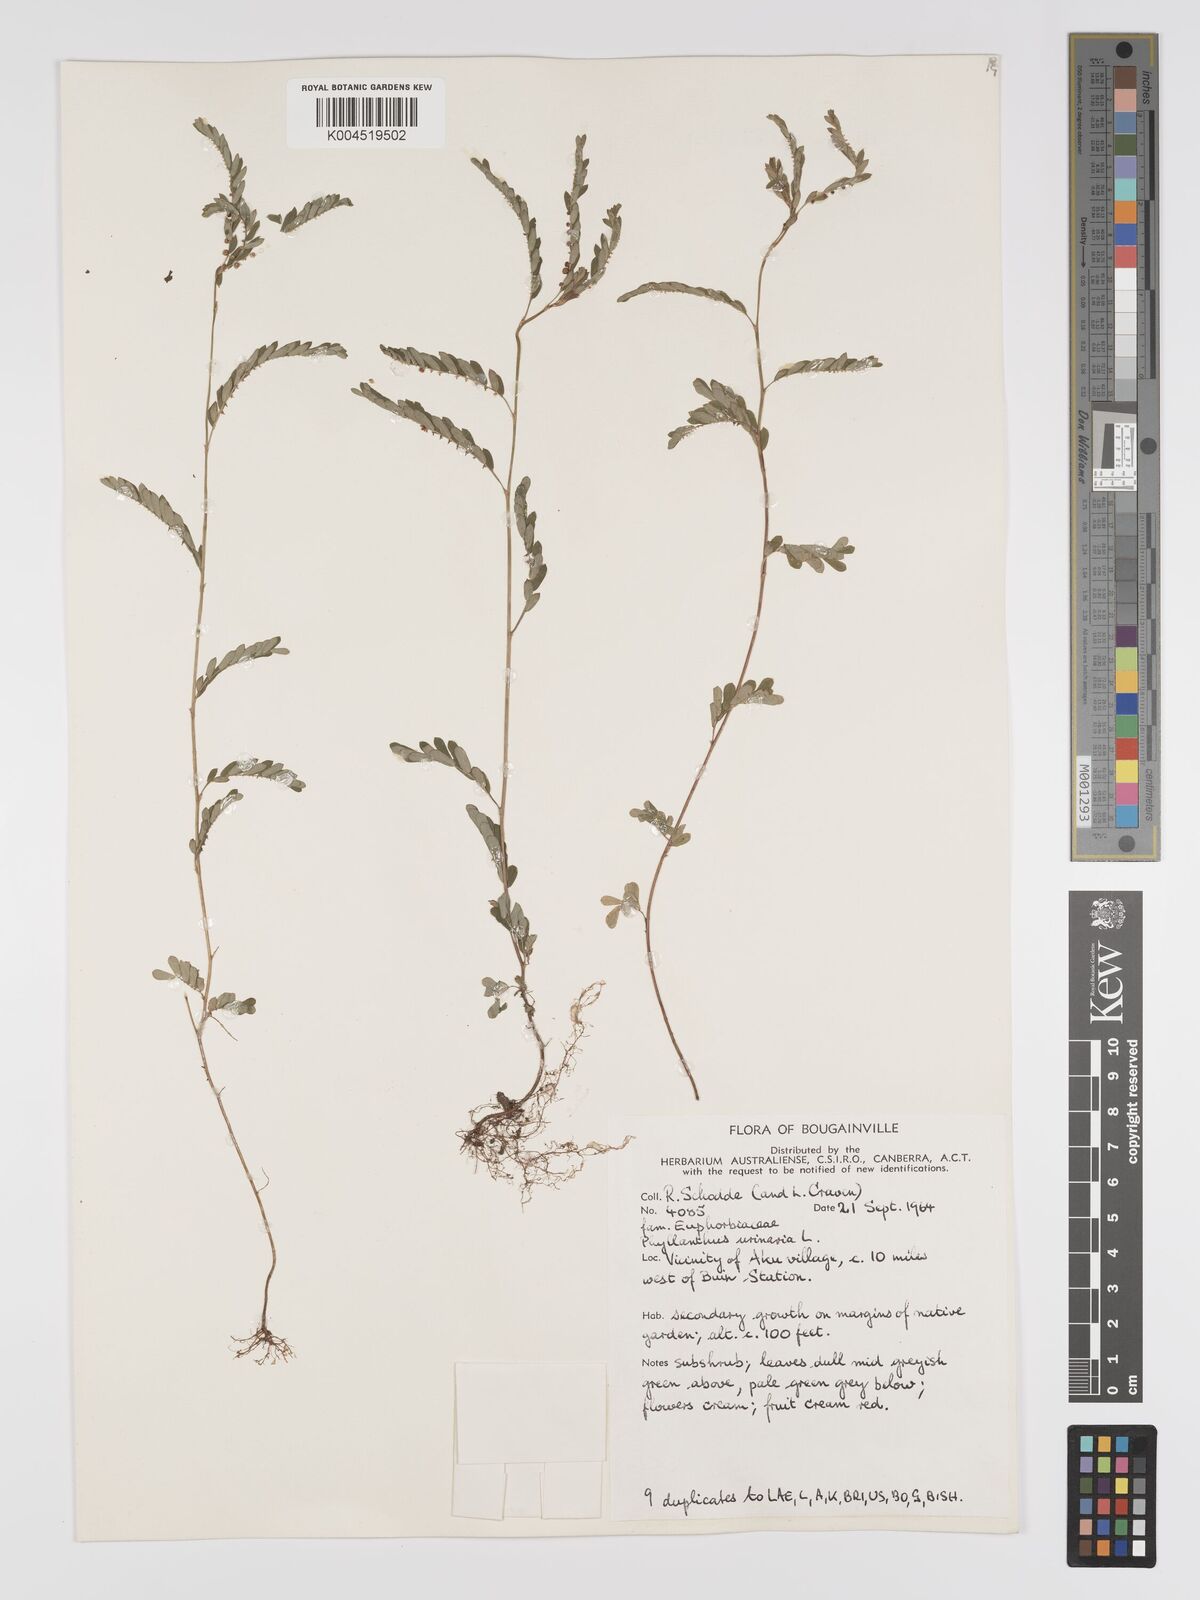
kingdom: Plantae
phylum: Tracheophyta
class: Magnoliopsida
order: Malpighiales
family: Phyllanthaceae
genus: Phyllanthus
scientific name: Phyllanthus urinaria
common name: Chamber bitter
